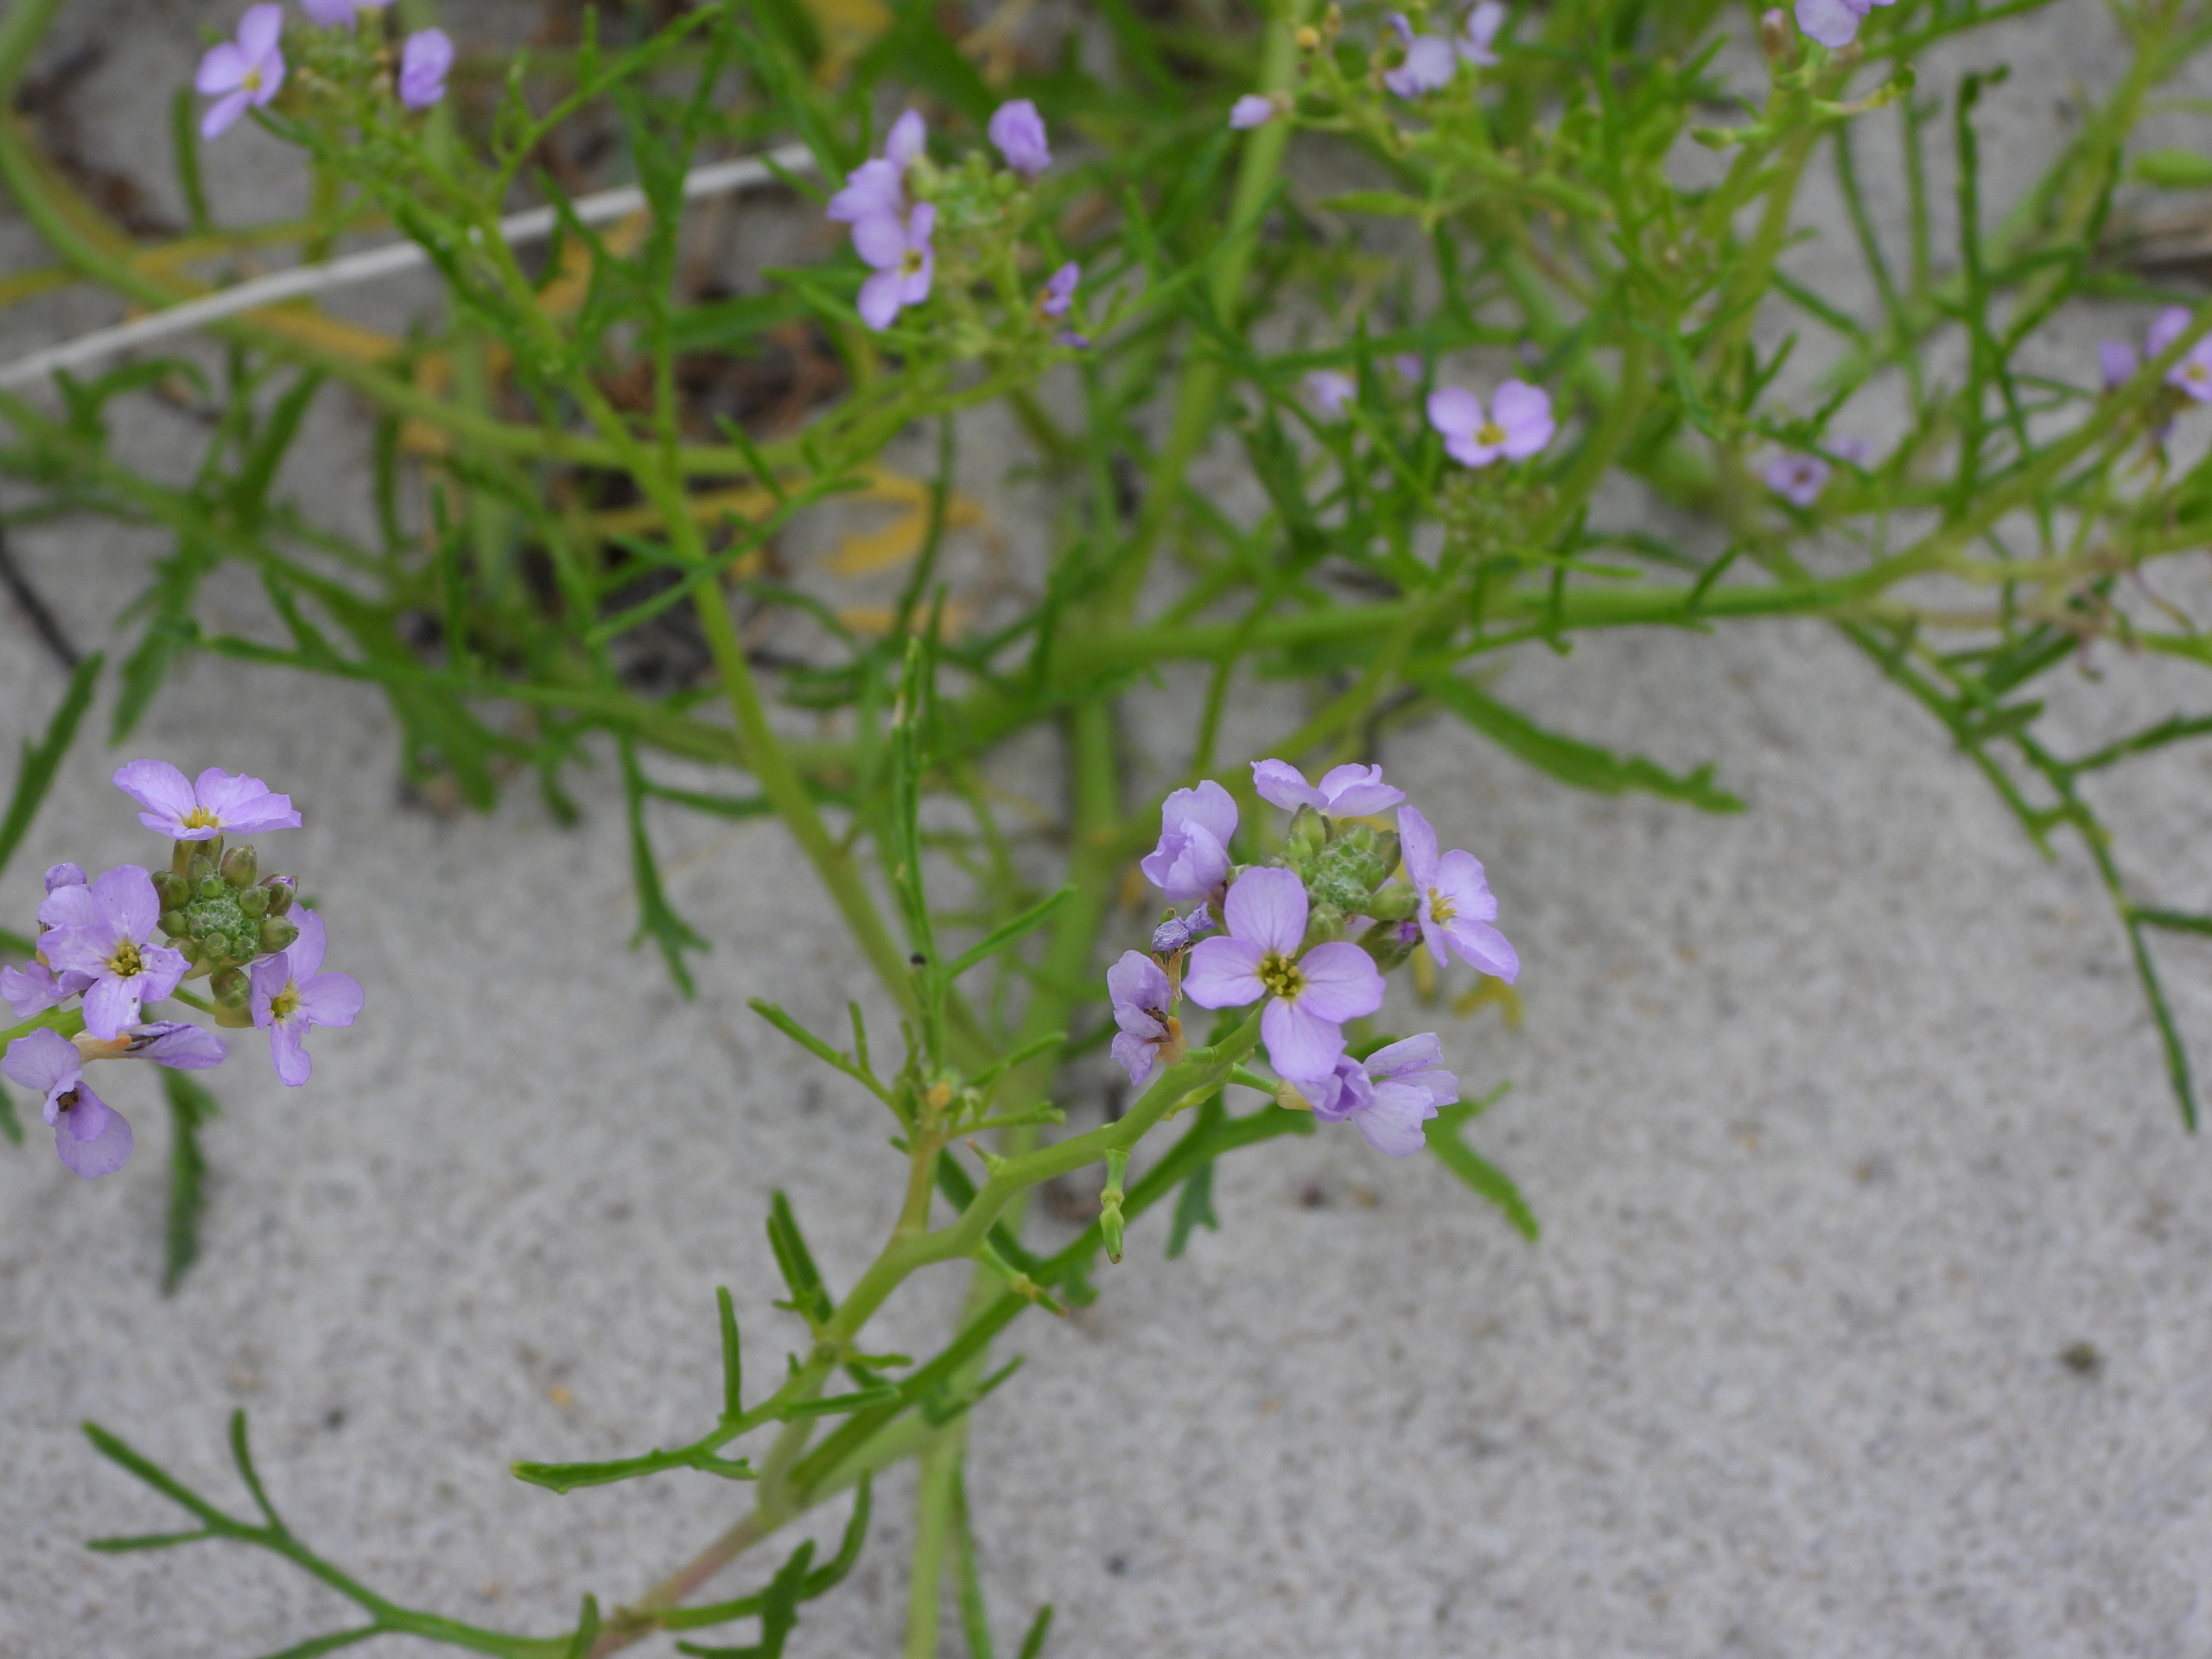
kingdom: Plantae
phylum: Tracheophyta
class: Magnoliopsida
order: Brassicales
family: Brassicaceae
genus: Cakile
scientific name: Cakile maritima
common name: Strandsennep
